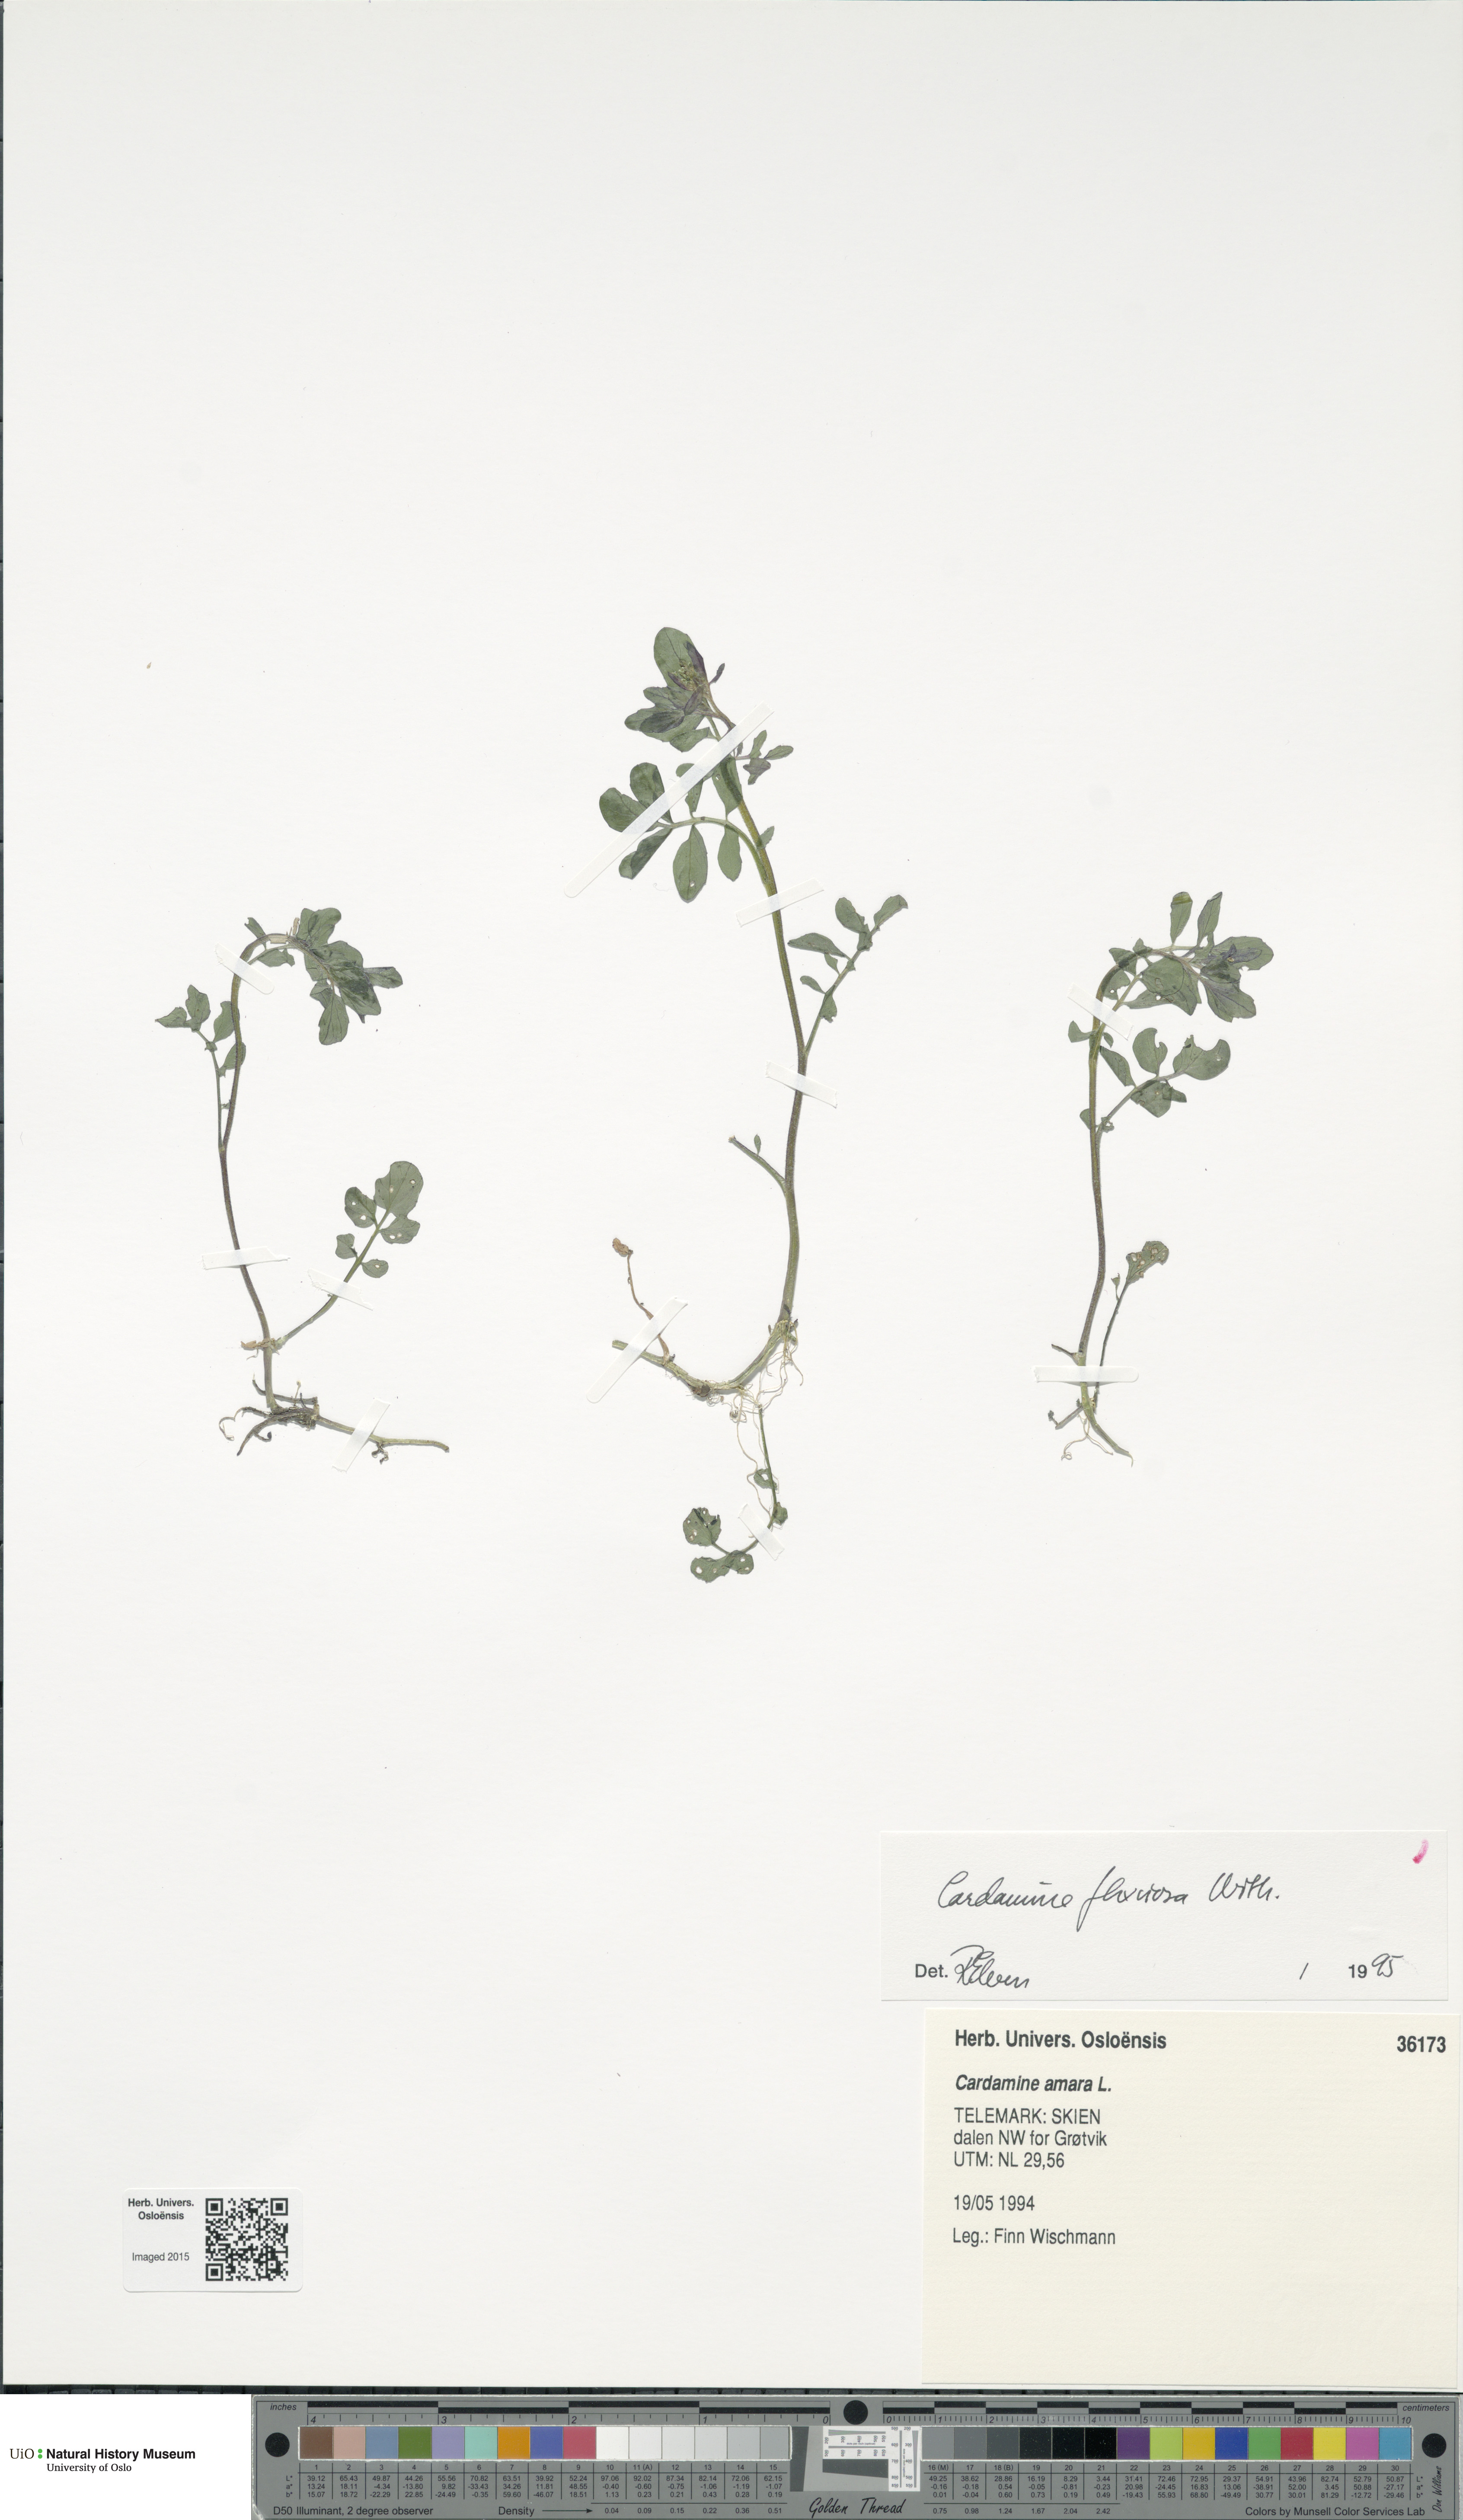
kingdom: Plantae
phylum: Tracheophyta
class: Magnoliopsida
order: Brassicales
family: Brassicaceae
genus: Cardamine
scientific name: Cardamine flexuosa
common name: Woodland bittercress
